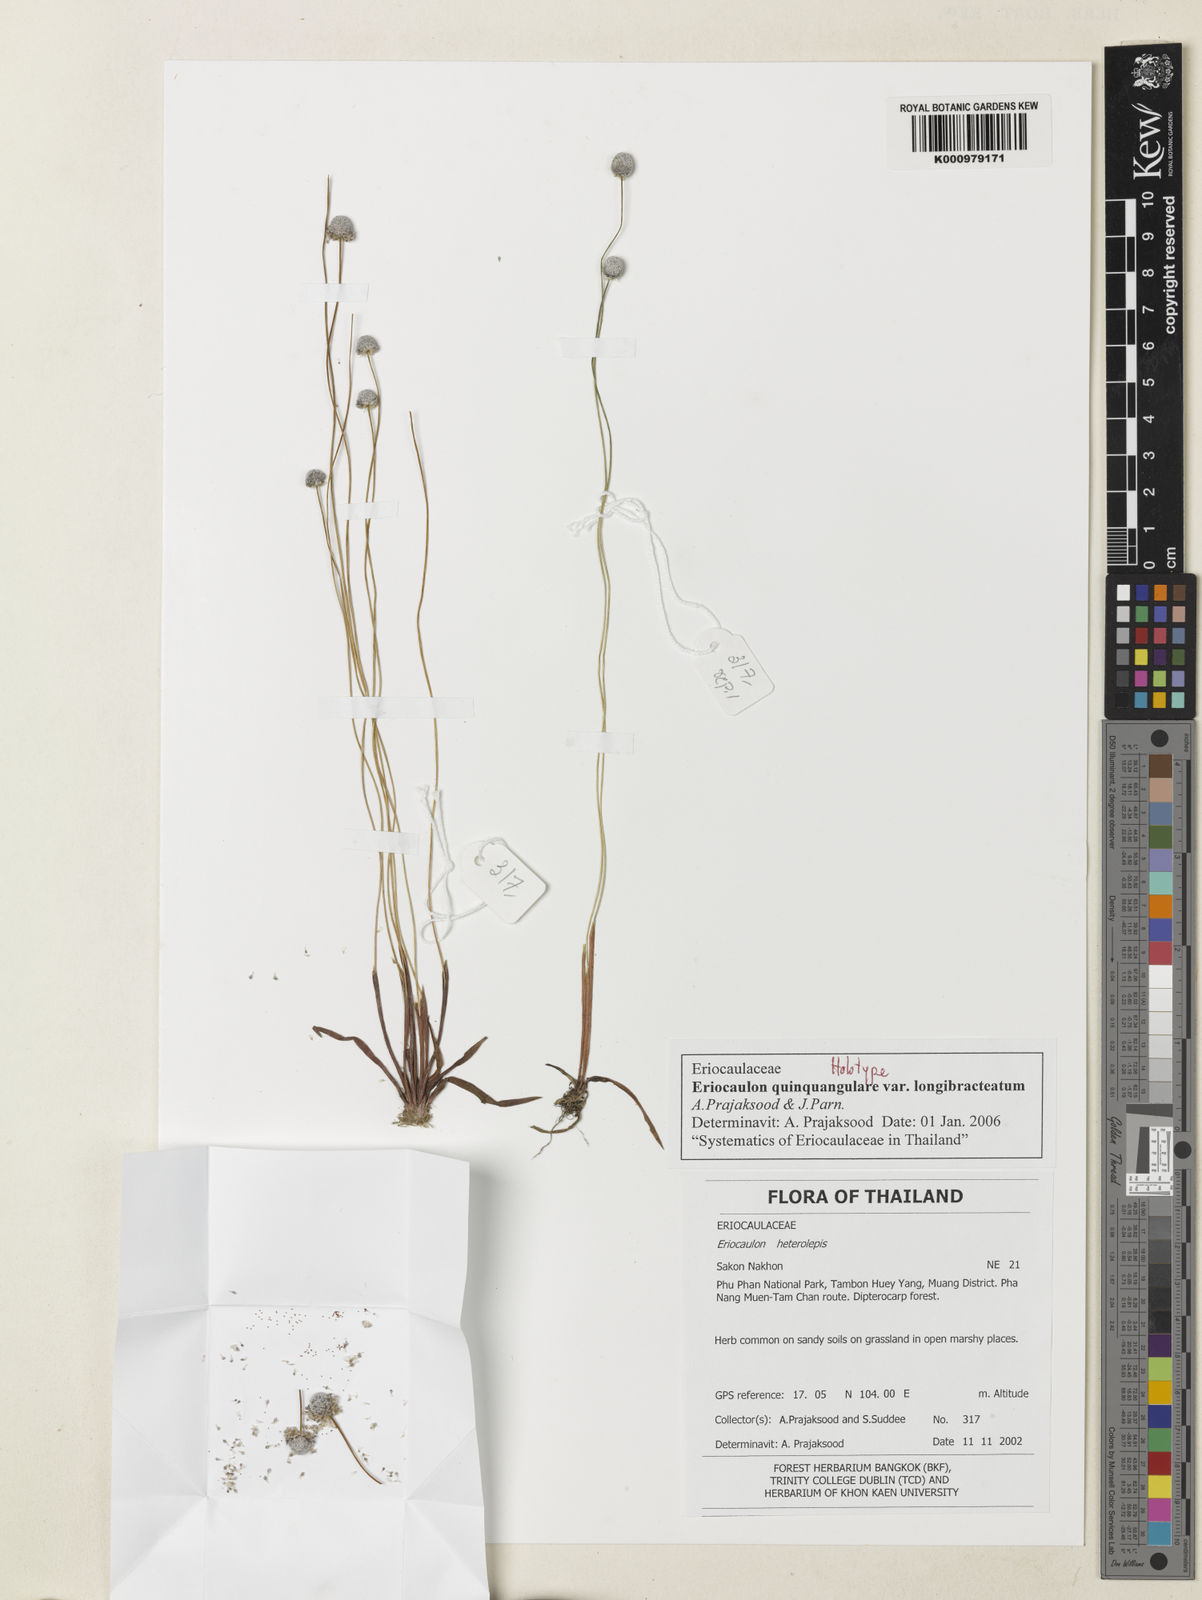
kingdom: Plantae
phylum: Tracheophyta
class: Liliopsida
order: Poales
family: Eriocaulaceae
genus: Eriocaulon
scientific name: Eriocaulon quinquangulare
